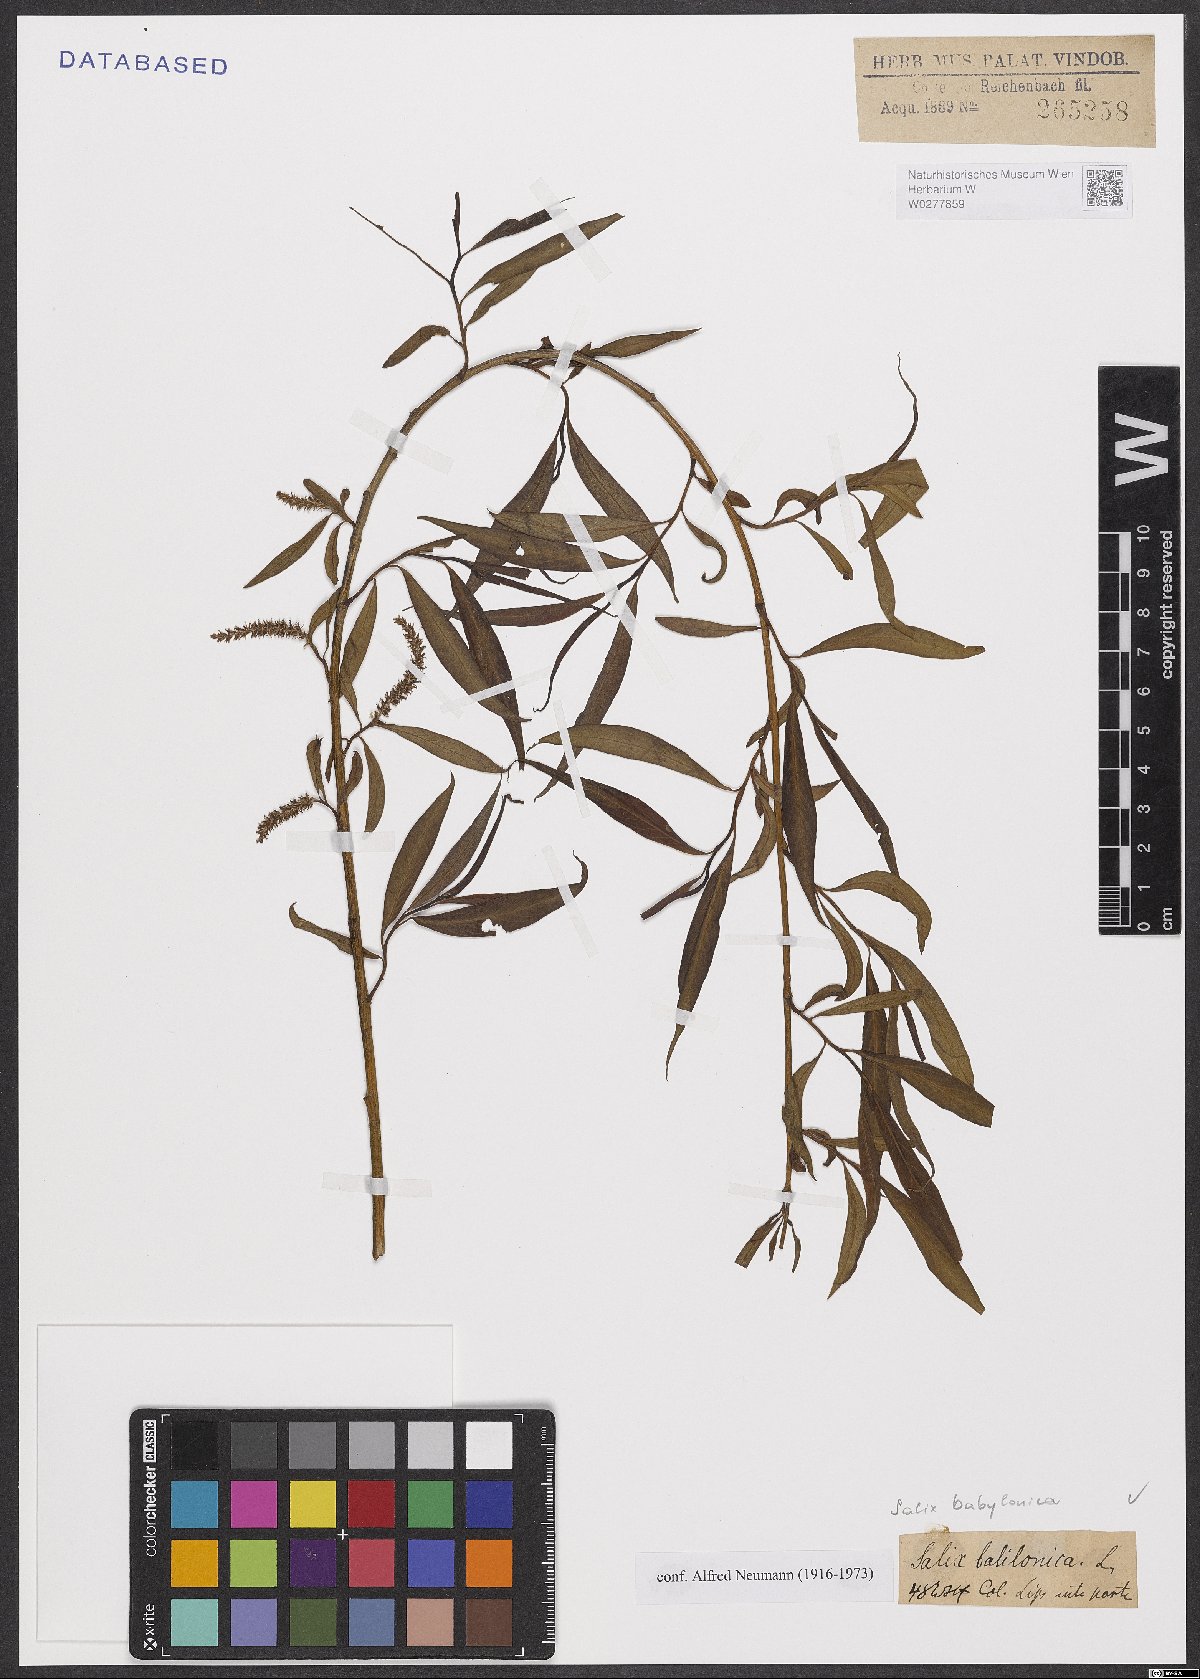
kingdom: Plantae
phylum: Tracheophyta
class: Magnoliopsida
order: Malpighiales
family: Salicaceae
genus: Salix
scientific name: Salix babylonica
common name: Weeping willow
